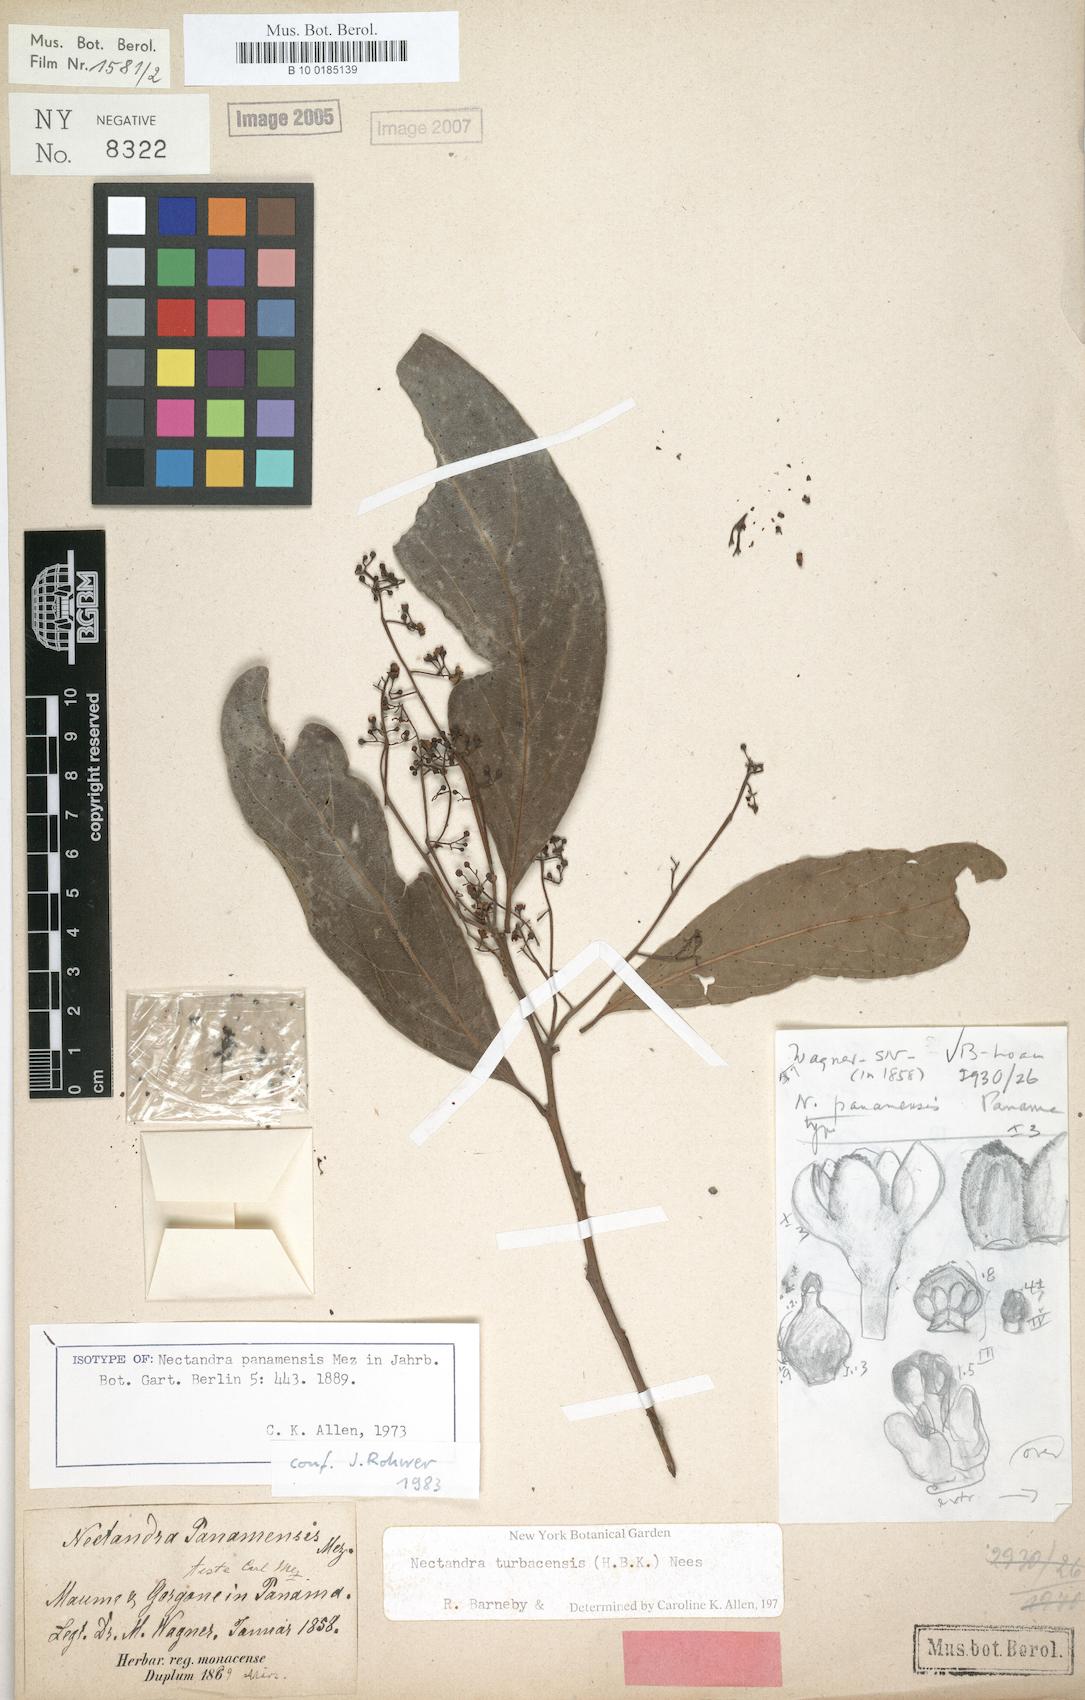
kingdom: Plantae
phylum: Tracheophyta
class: Magnoliopsida
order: Laurales
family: Lauraceae
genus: Nectandra
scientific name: Nectandra turbacensis
